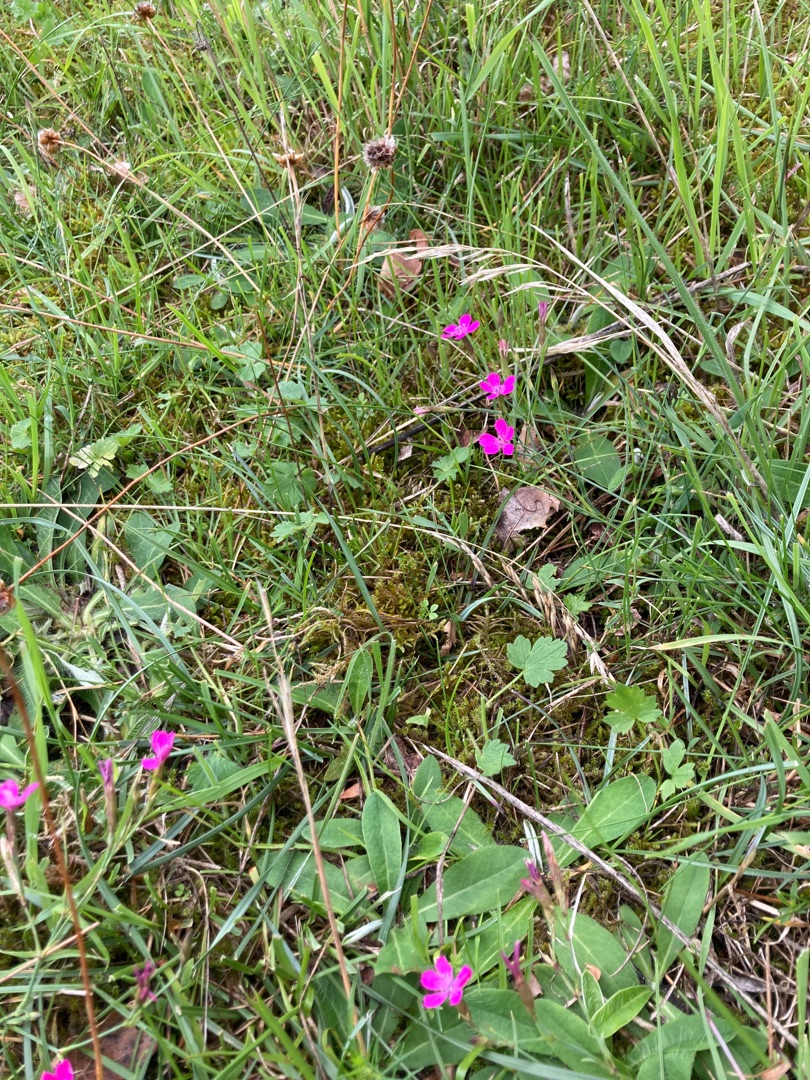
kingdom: Plantae
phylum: Tracheophyta
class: Magnoliopsida
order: Caryophyllales
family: Caryophyllaceae
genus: Dianthus
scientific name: Dianthus deltoides
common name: Bakke-nellike
